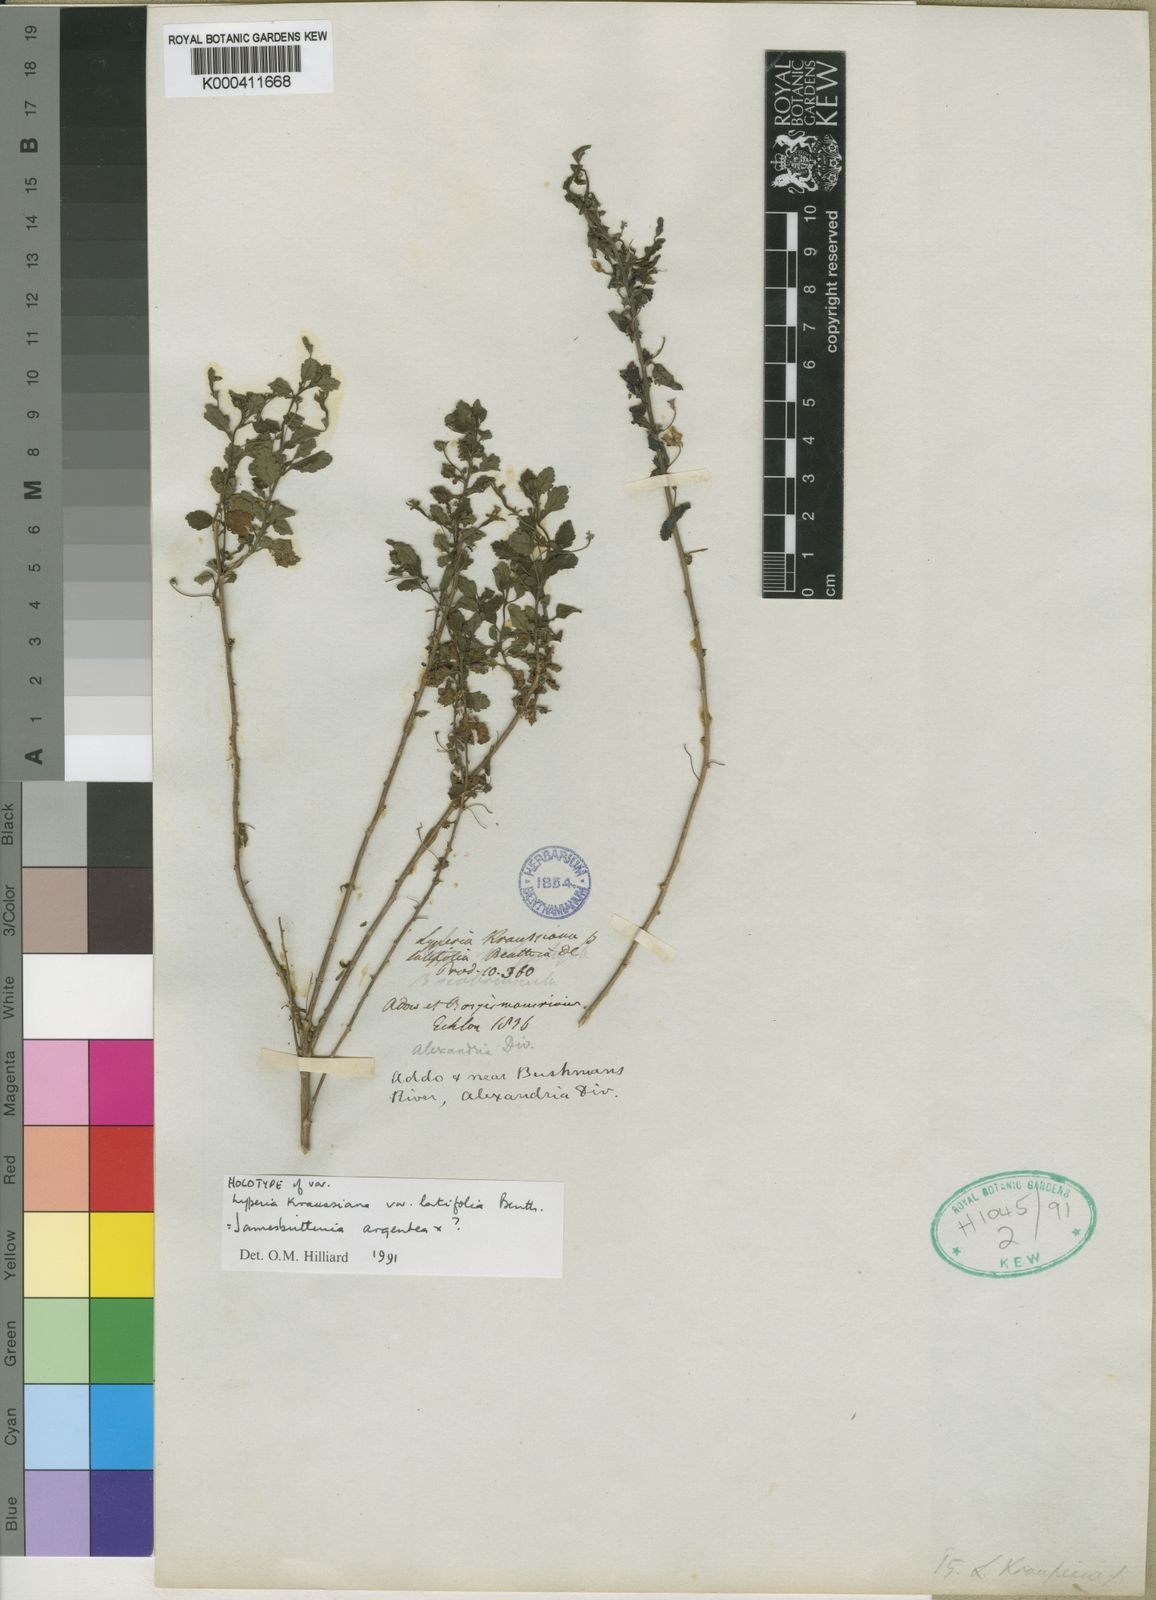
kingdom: Plantae
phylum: Tracheophyta
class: Magnoliopsida
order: Lamiales
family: Scrophulariaceae
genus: Jamesbrittenia
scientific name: Jamesbrittenia argentea
